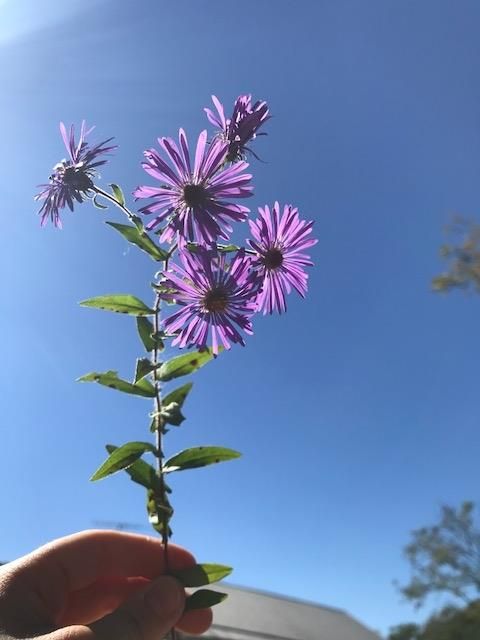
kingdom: Plantae
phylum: Tracheophyta
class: Magnoliopsida
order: Asterales
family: Asteraceae
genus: Symphyotrichum
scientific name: Symphyotrichum novae-angliae
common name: New England aster
